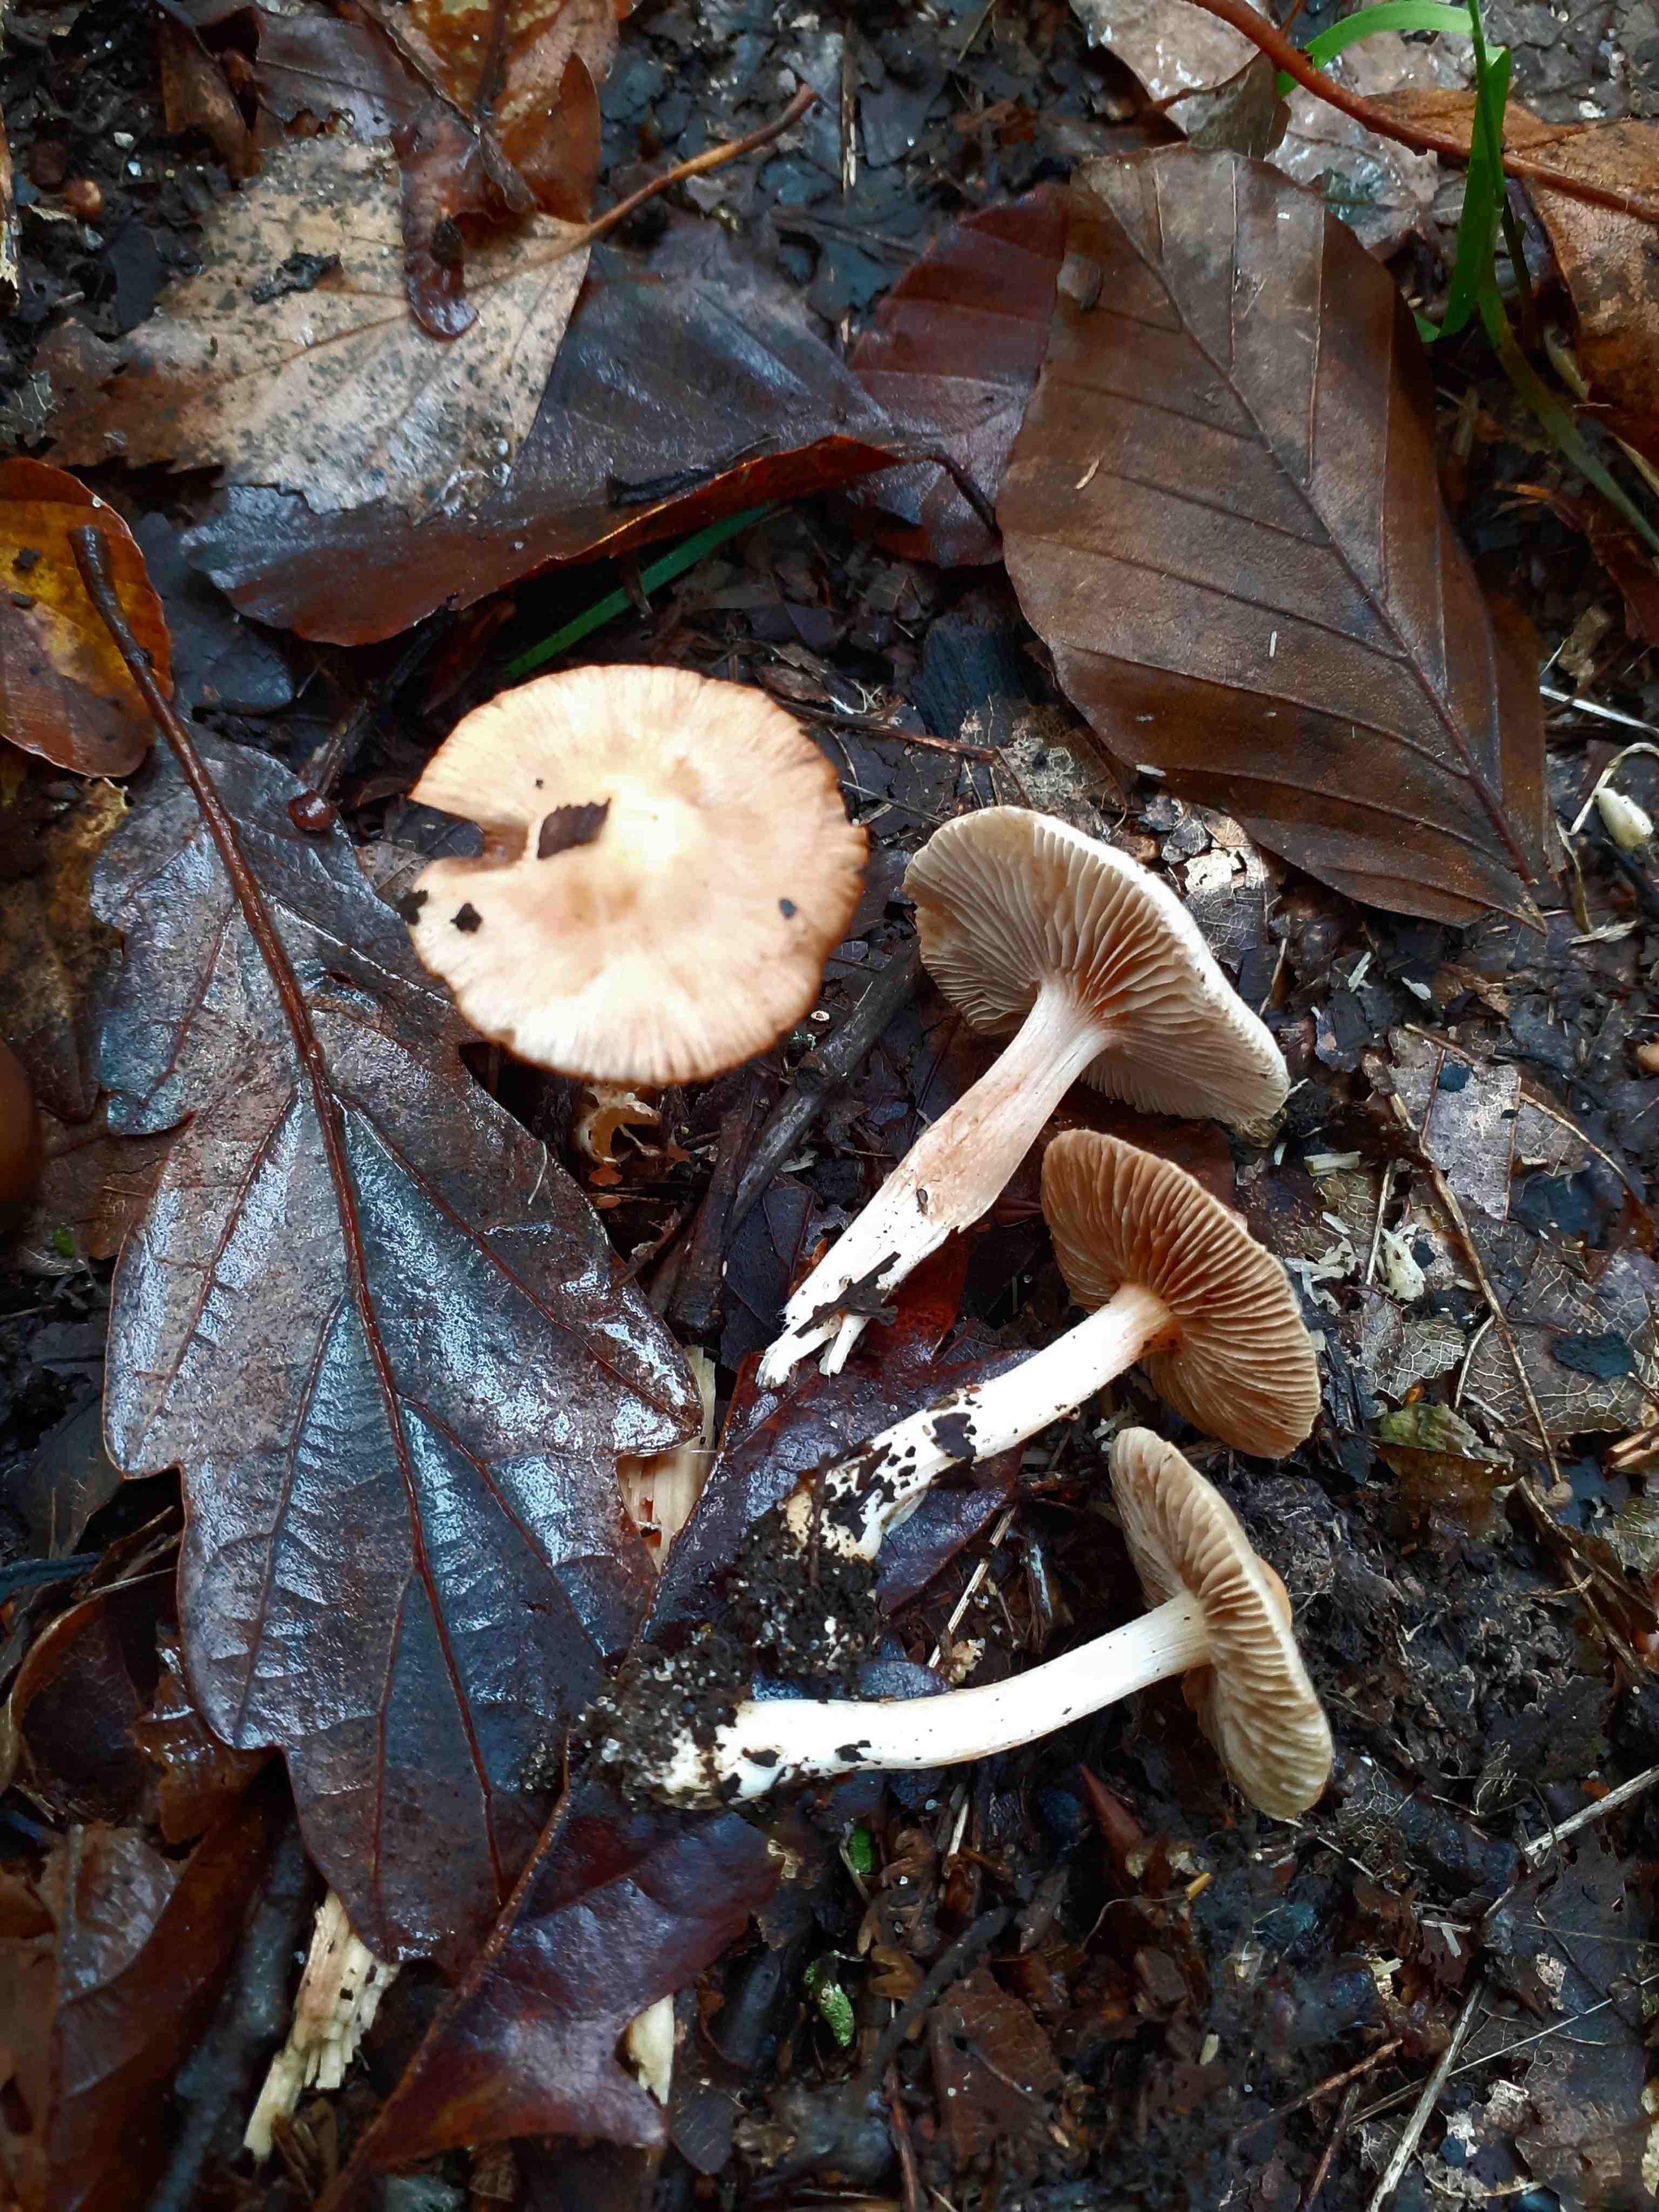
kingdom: Fungi
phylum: Basidiomycota
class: Agaricomycetes
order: Agaricales
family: Inocybaceae
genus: Inocybe
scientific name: Inocybe
